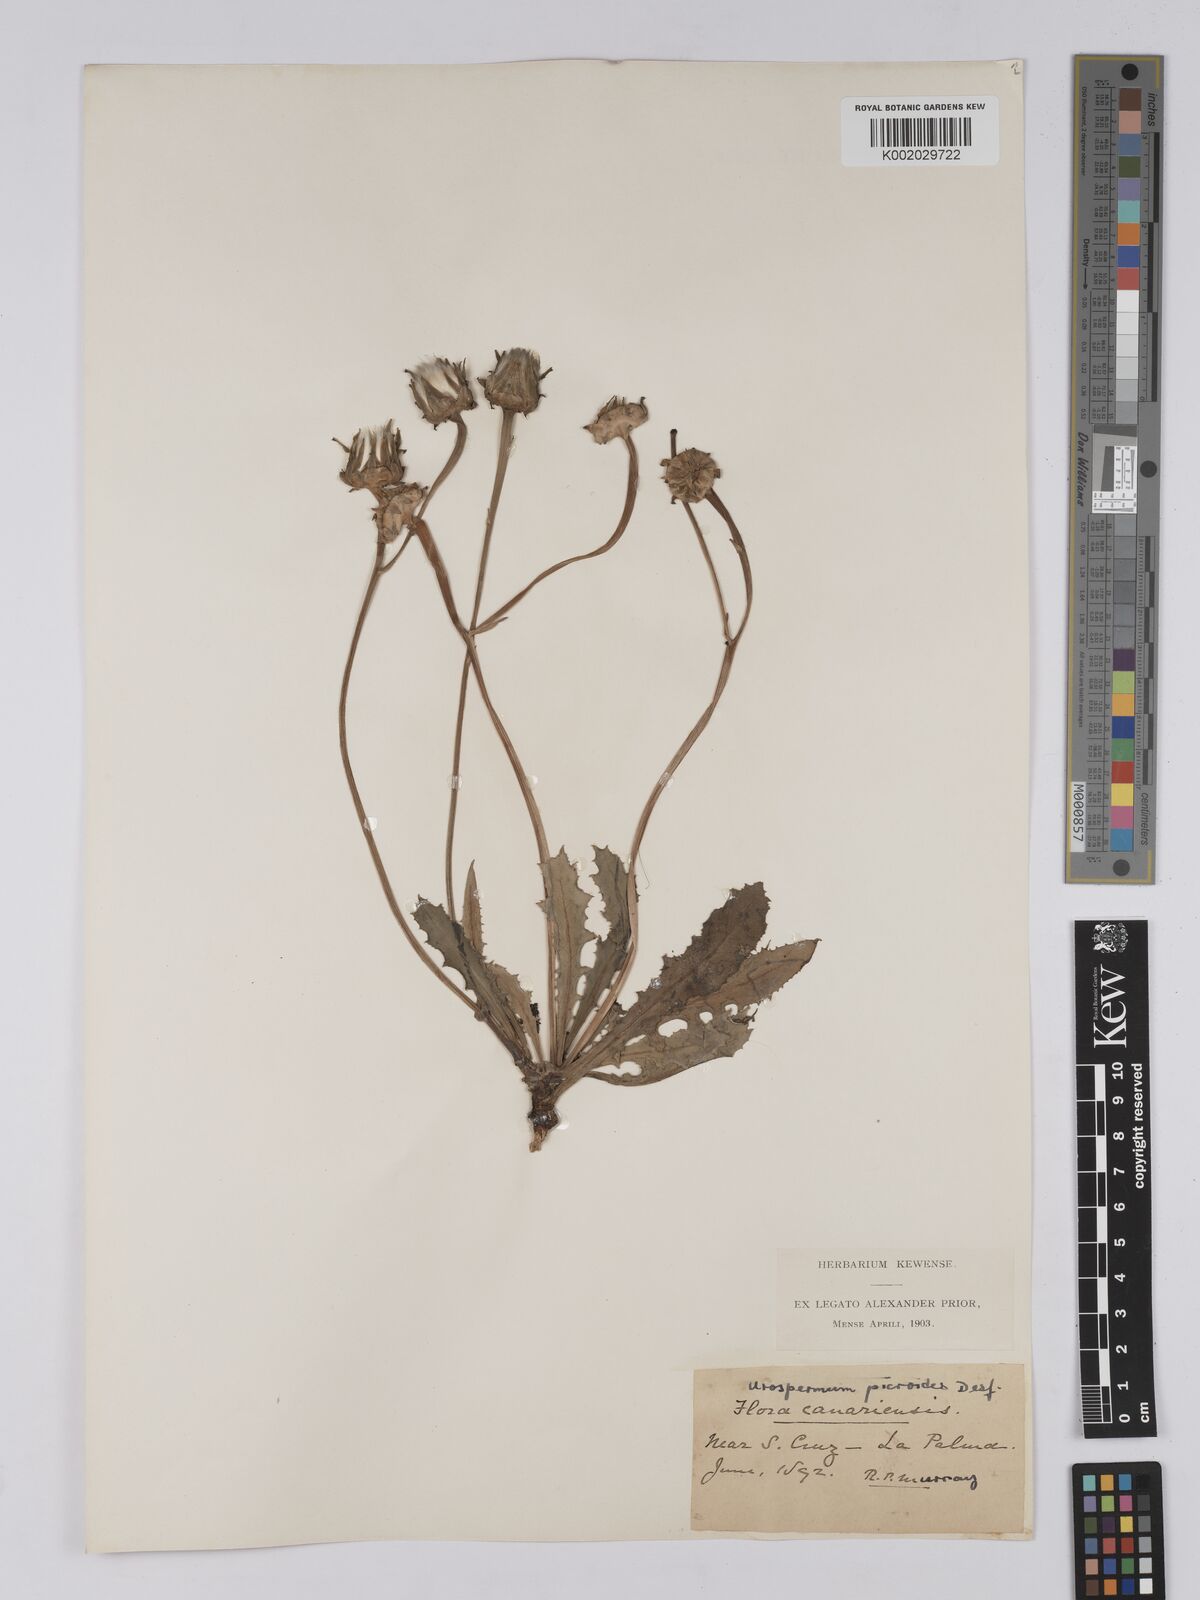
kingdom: Plantae
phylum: Tracheophyta
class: Magnoliopsida
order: Asterales
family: Asteraceae
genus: Urospermum
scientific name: Urospermum picroides
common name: False hawkbit
